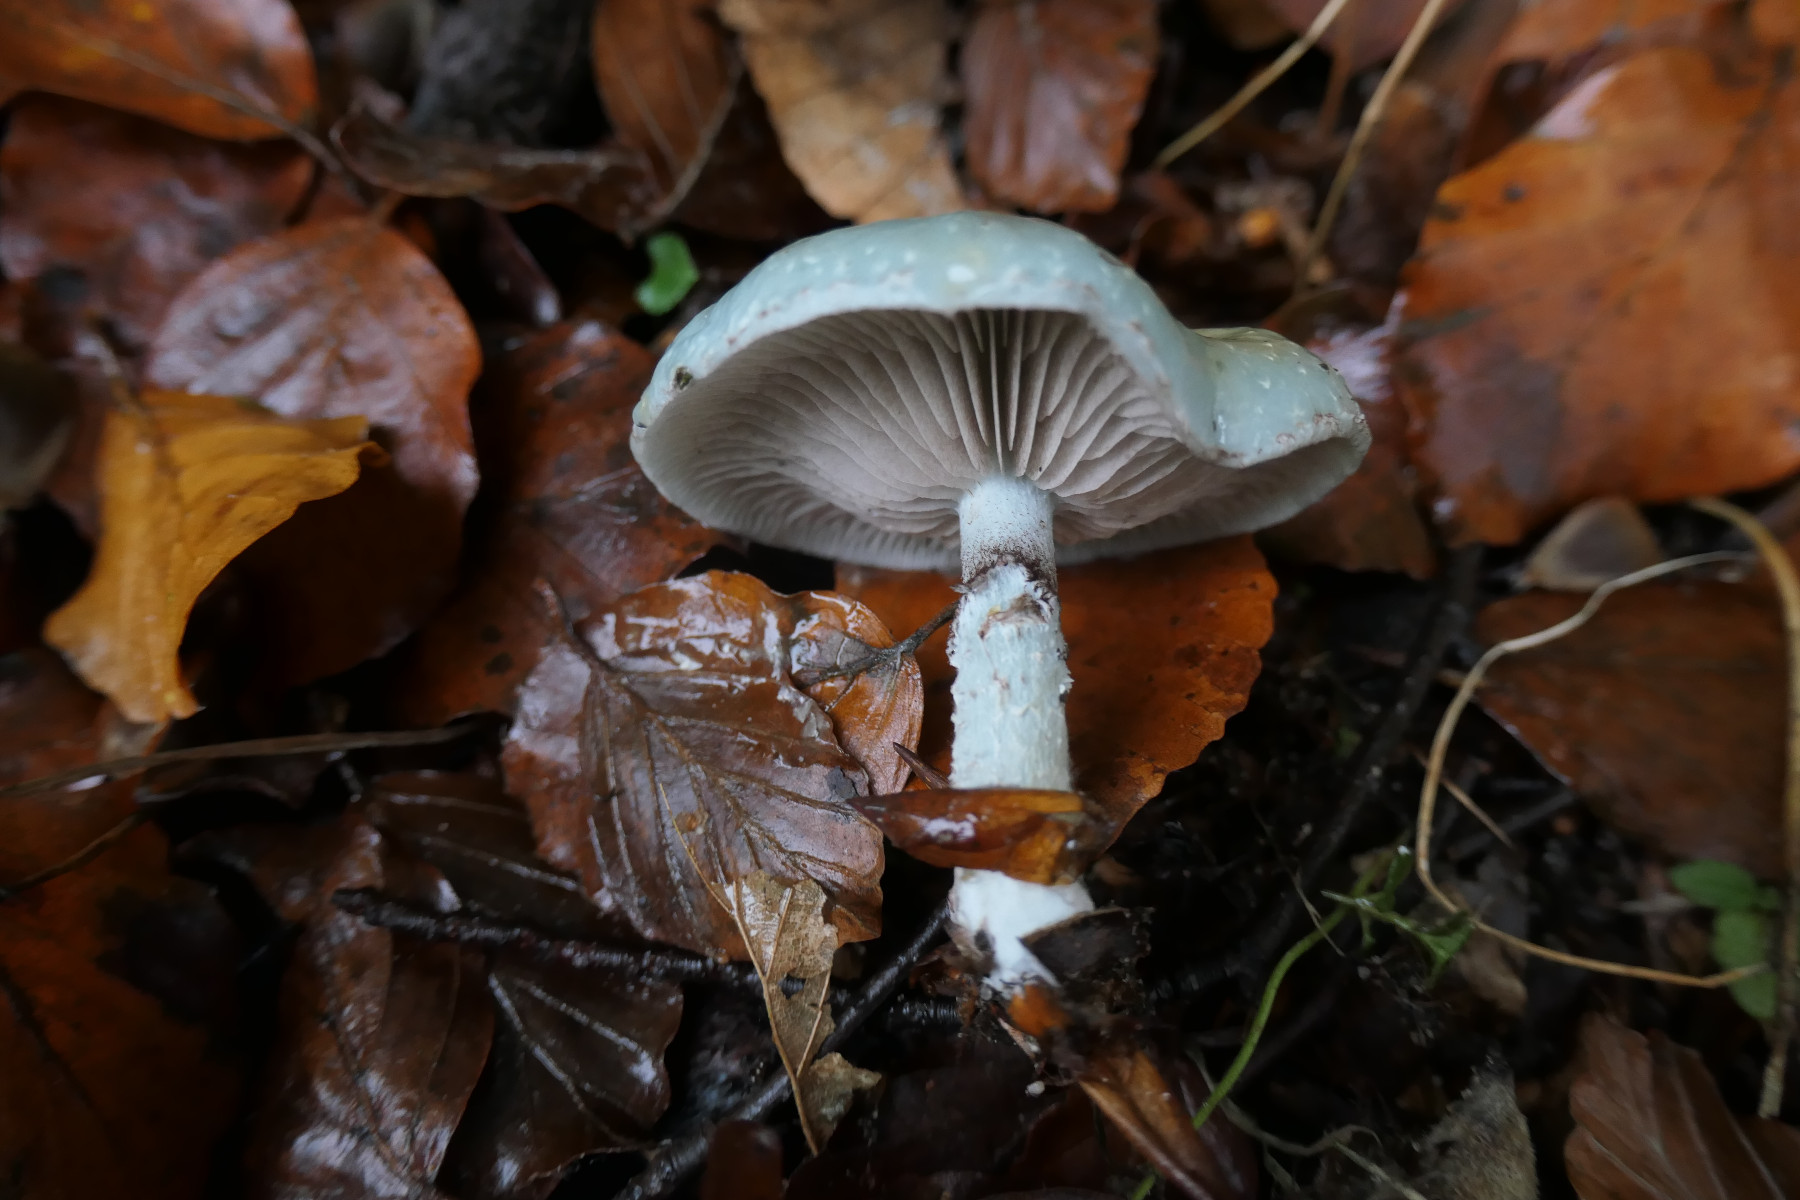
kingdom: Fungi
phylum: Basidiomycota
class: Agaricomycetes
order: Agaricales
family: Strophariaceae
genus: Stropharia
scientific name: Stropharia cyanea
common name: blågrøn bredblad
